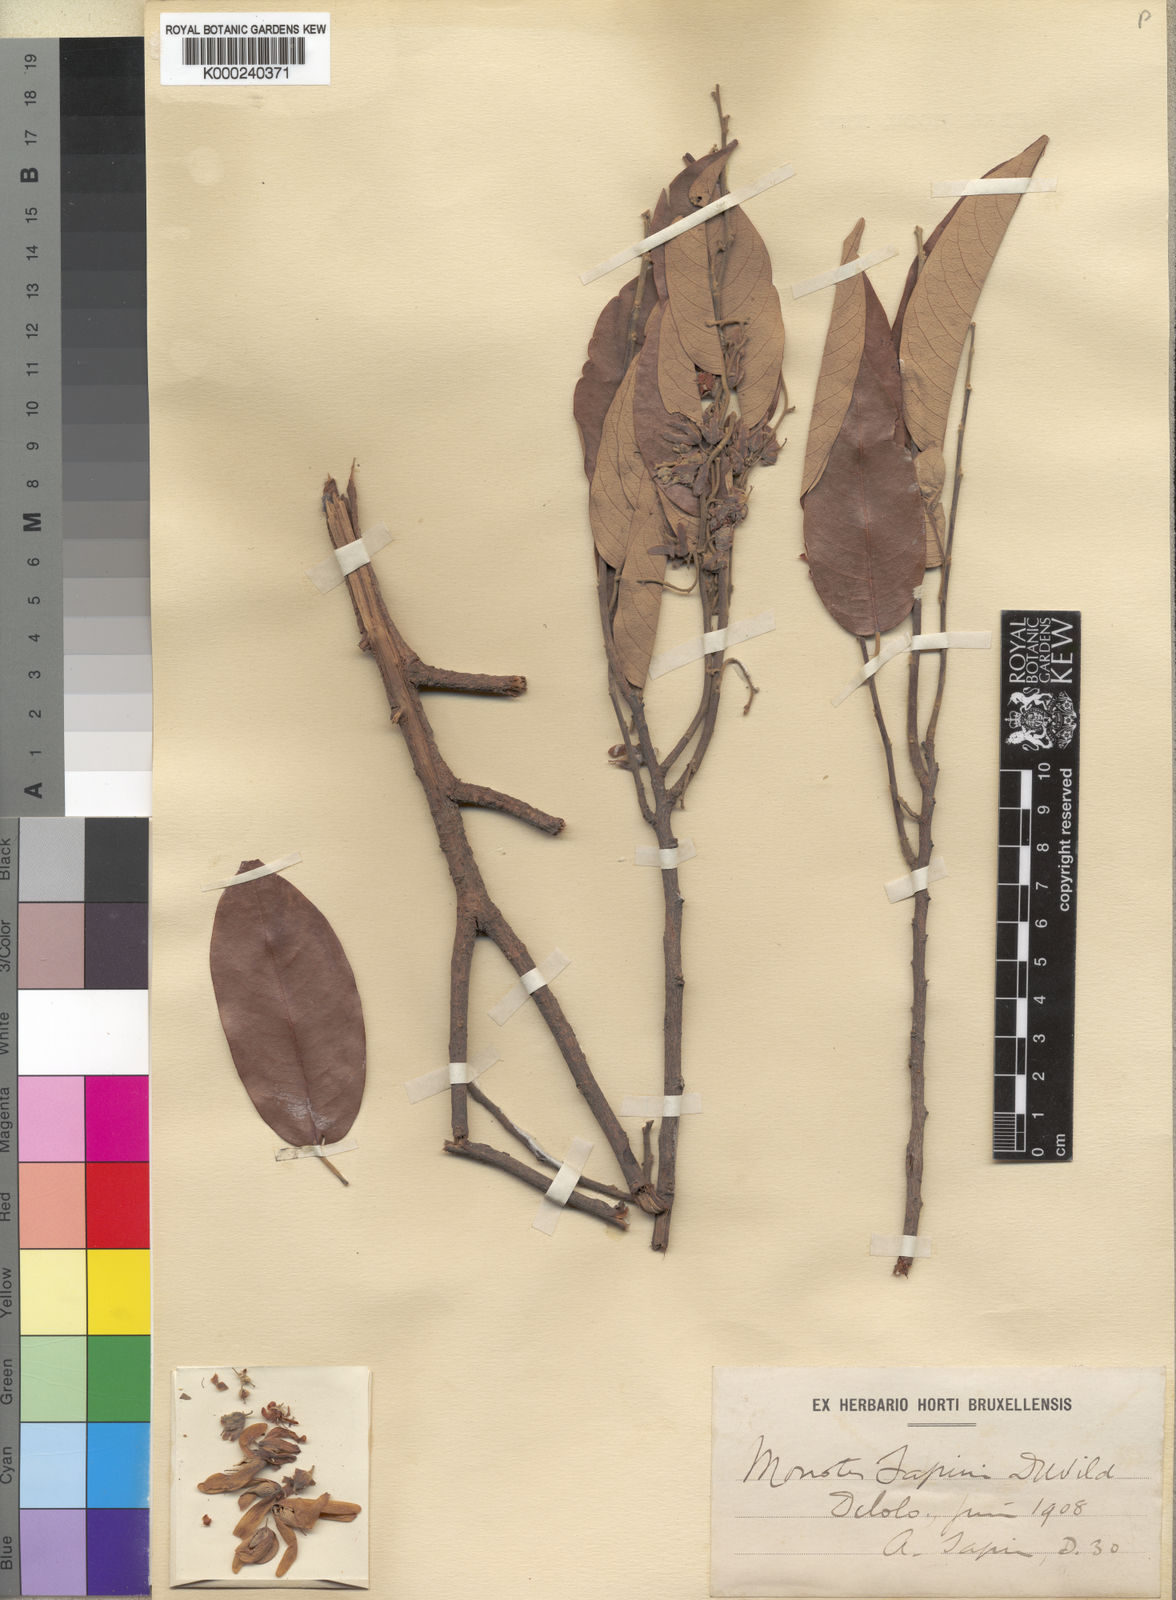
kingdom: Plantae
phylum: Tracheophyta
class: Magnoliopsida
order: Malvales
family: Dipterocarpaceae
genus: Marquesia
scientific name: Marquesia macroura
